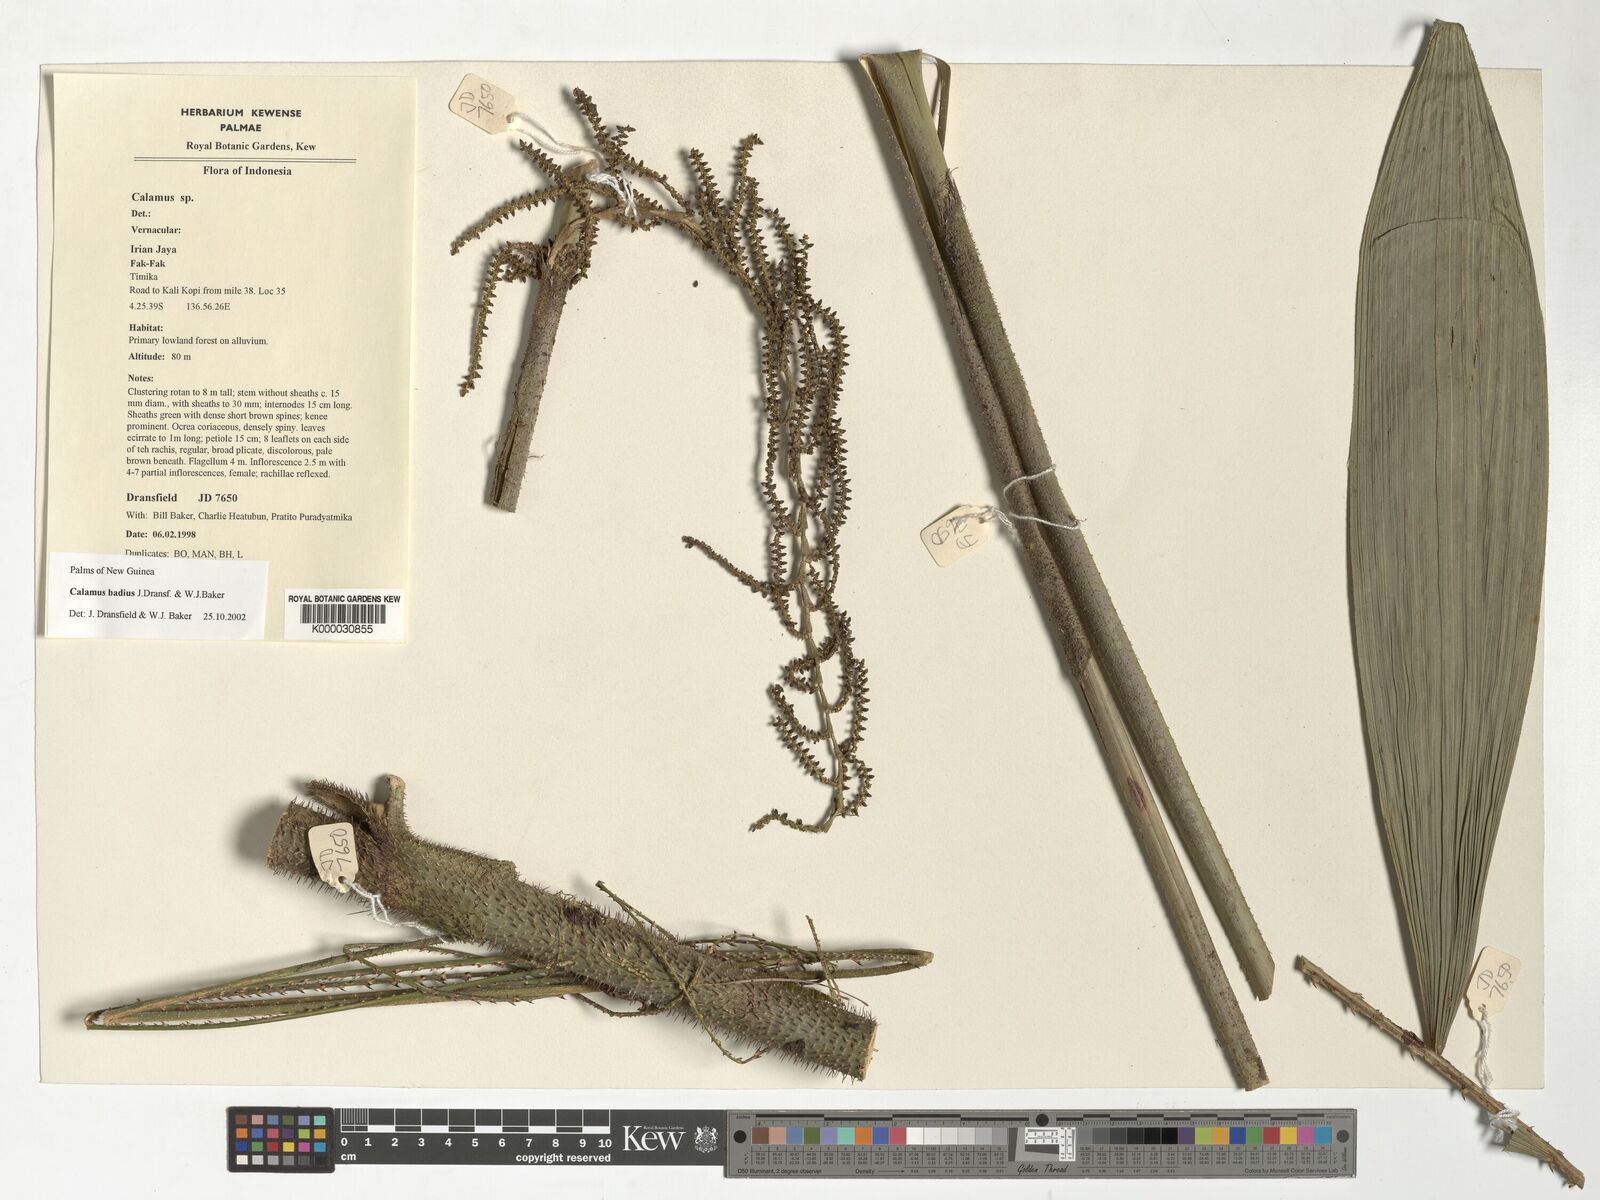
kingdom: Plantae
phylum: Tracheophyta
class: Liliopsida
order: Arecales
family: Arecaceae
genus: Calamus
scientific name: Calamus badius
